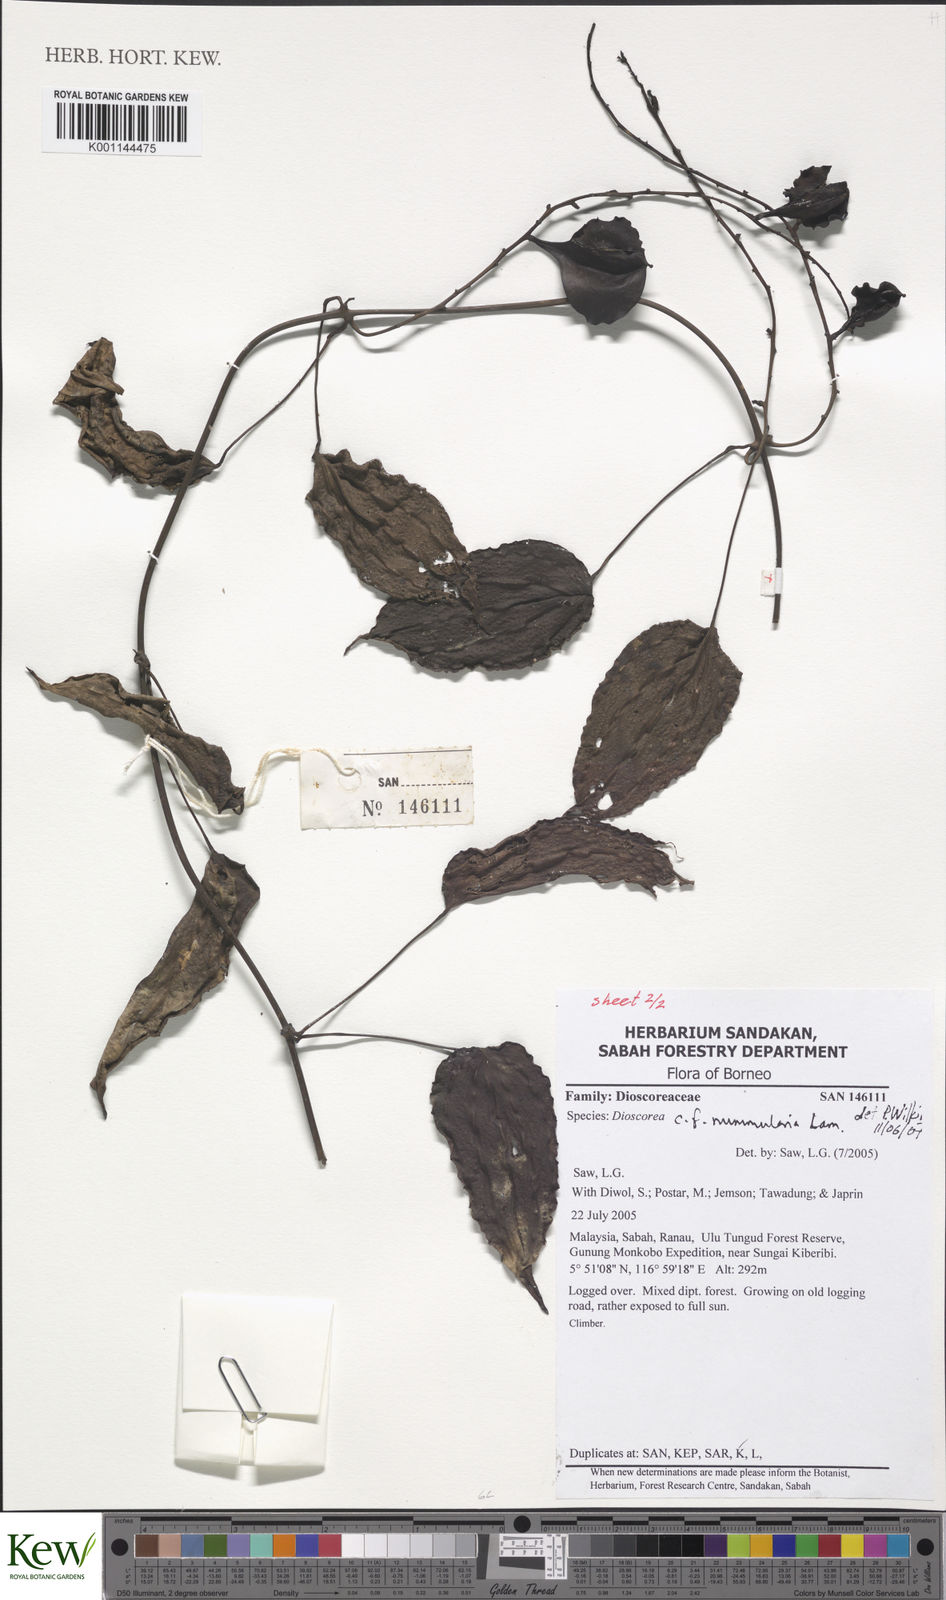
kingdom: Plantae
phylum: Tracheophyta
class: Liliopsida
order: Dioscoreales
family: Dioscoreaceae
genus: Dioscorea
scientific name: Dioscorea nummularia
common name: Pacific yam
